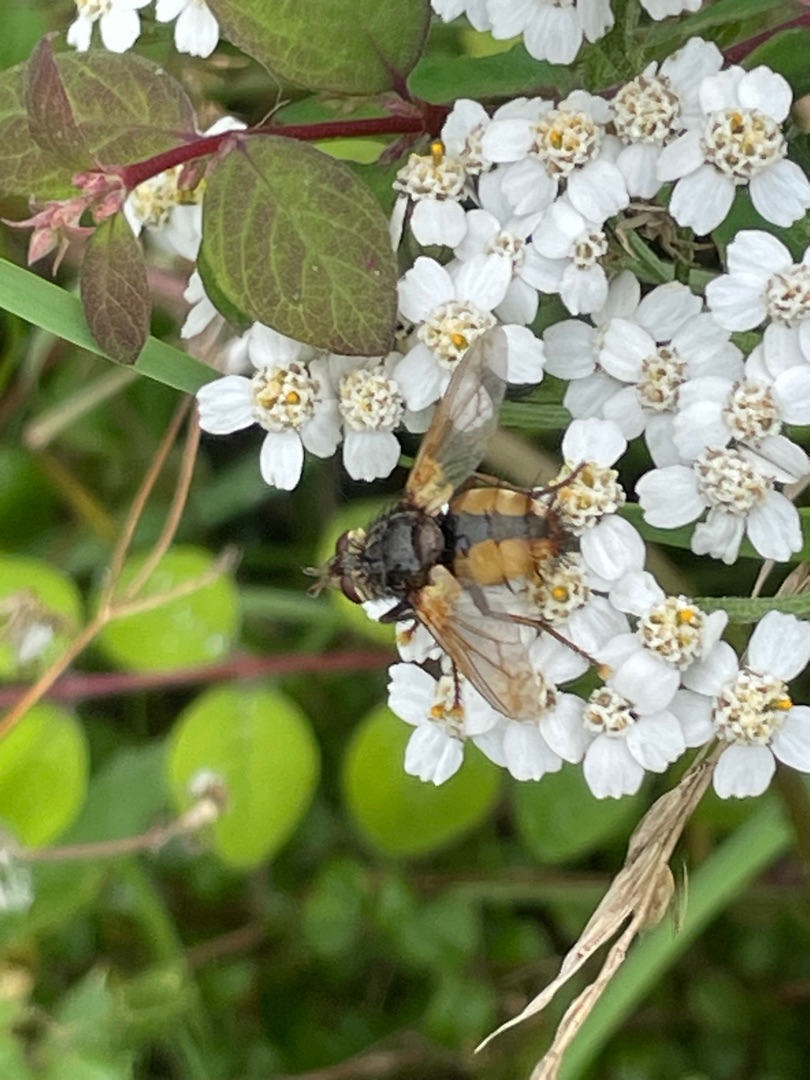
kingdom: Animalia
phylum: Arthropoda
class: Insecta
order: Diptera
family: Tachinidae
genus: Tachina
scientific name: Tachina fera
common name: Mellemfluen oskar
